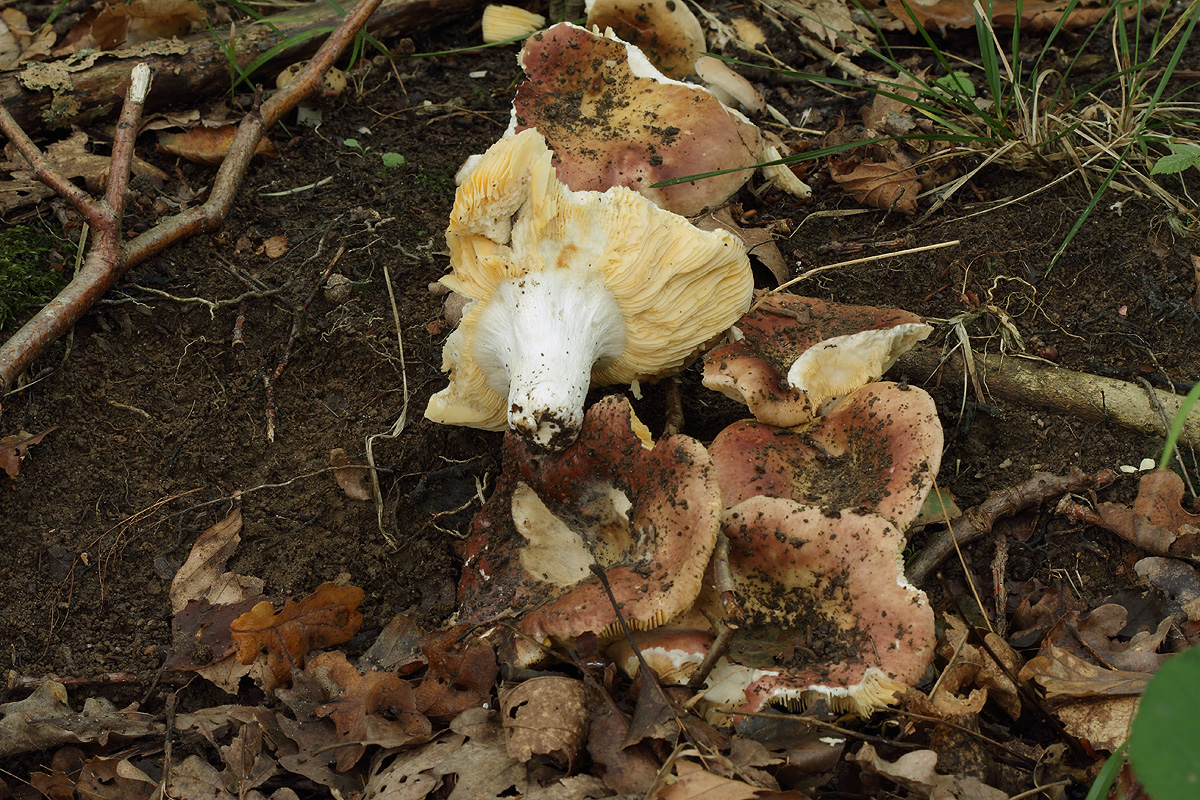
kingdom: Fungi
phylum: Basidiomycota
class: Agaricomycetes
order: Russulales
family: Russulaceae
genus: Russula
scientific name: Russula
